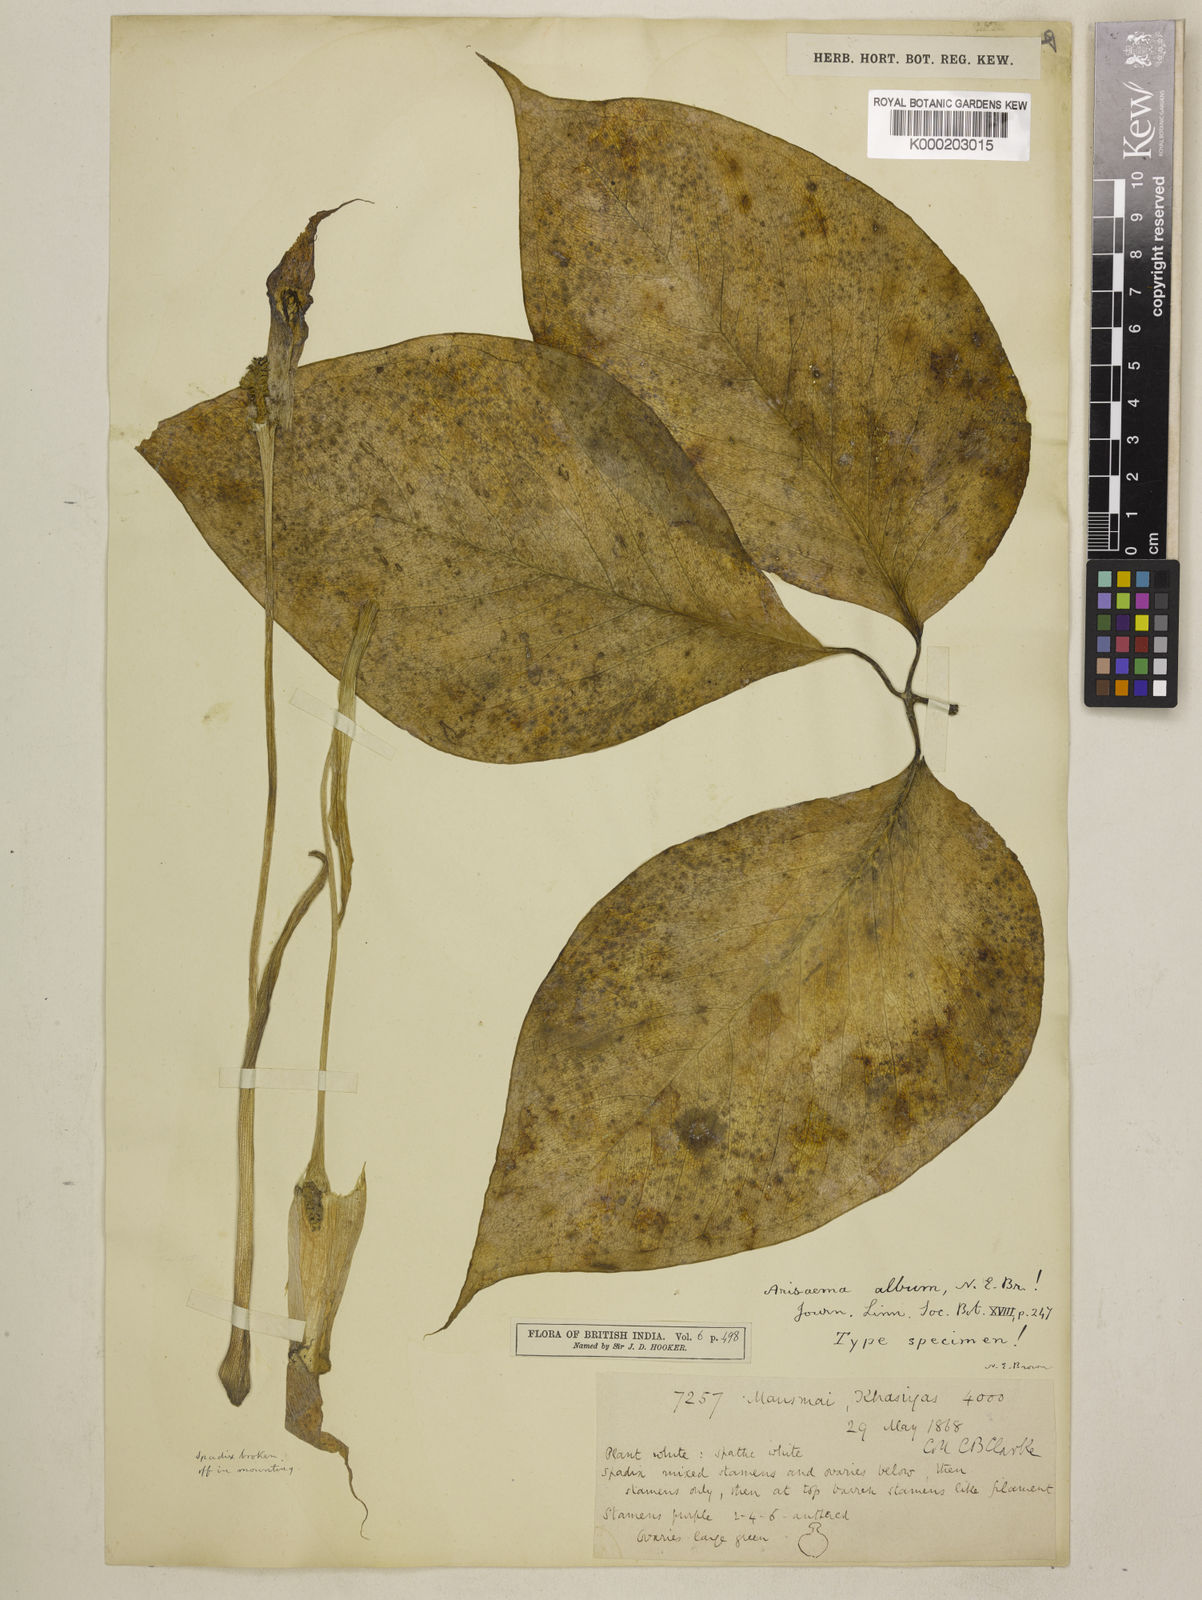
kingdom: Plantae
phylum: Tracheophyta
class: Liliopsida
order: Alismatales
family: Araceae
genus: Arisaema
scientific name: Arisaema album
